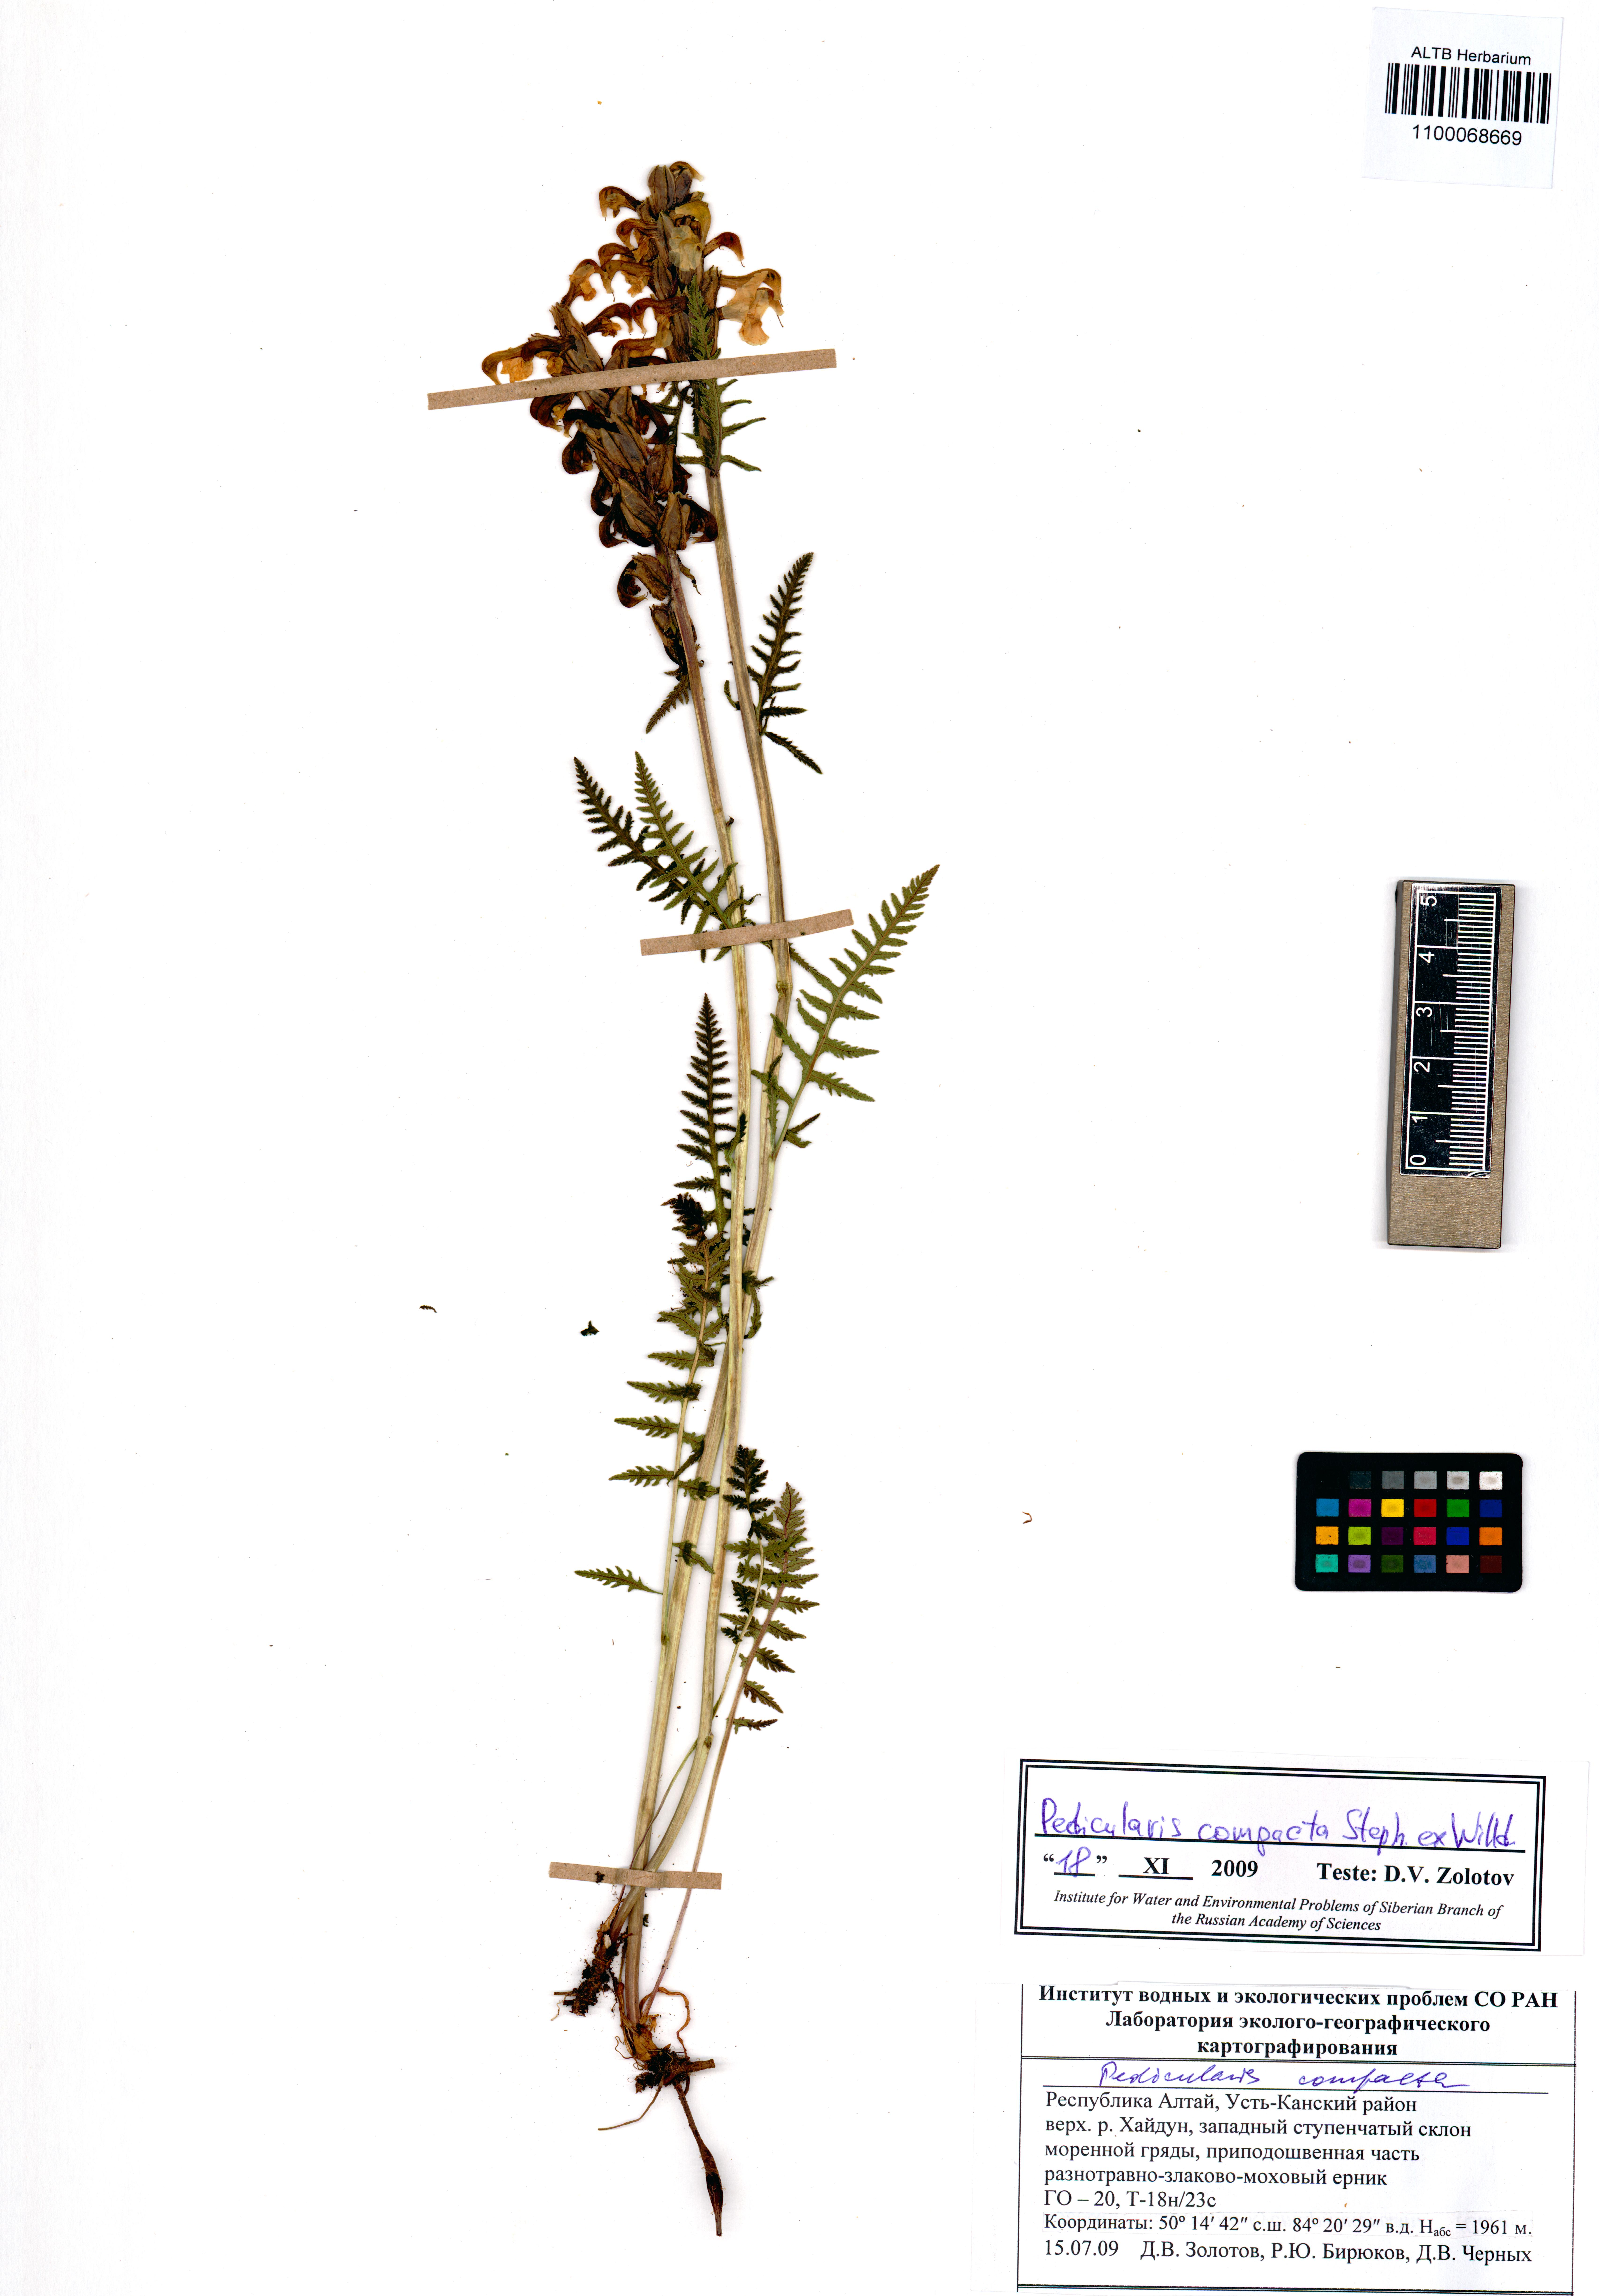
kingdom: Plantae
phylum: Tracheophyta
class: Magnoliopsida
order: Lamiales
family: Orobanchaceae
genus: Pedicularis
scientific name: Pedicularis compacta
